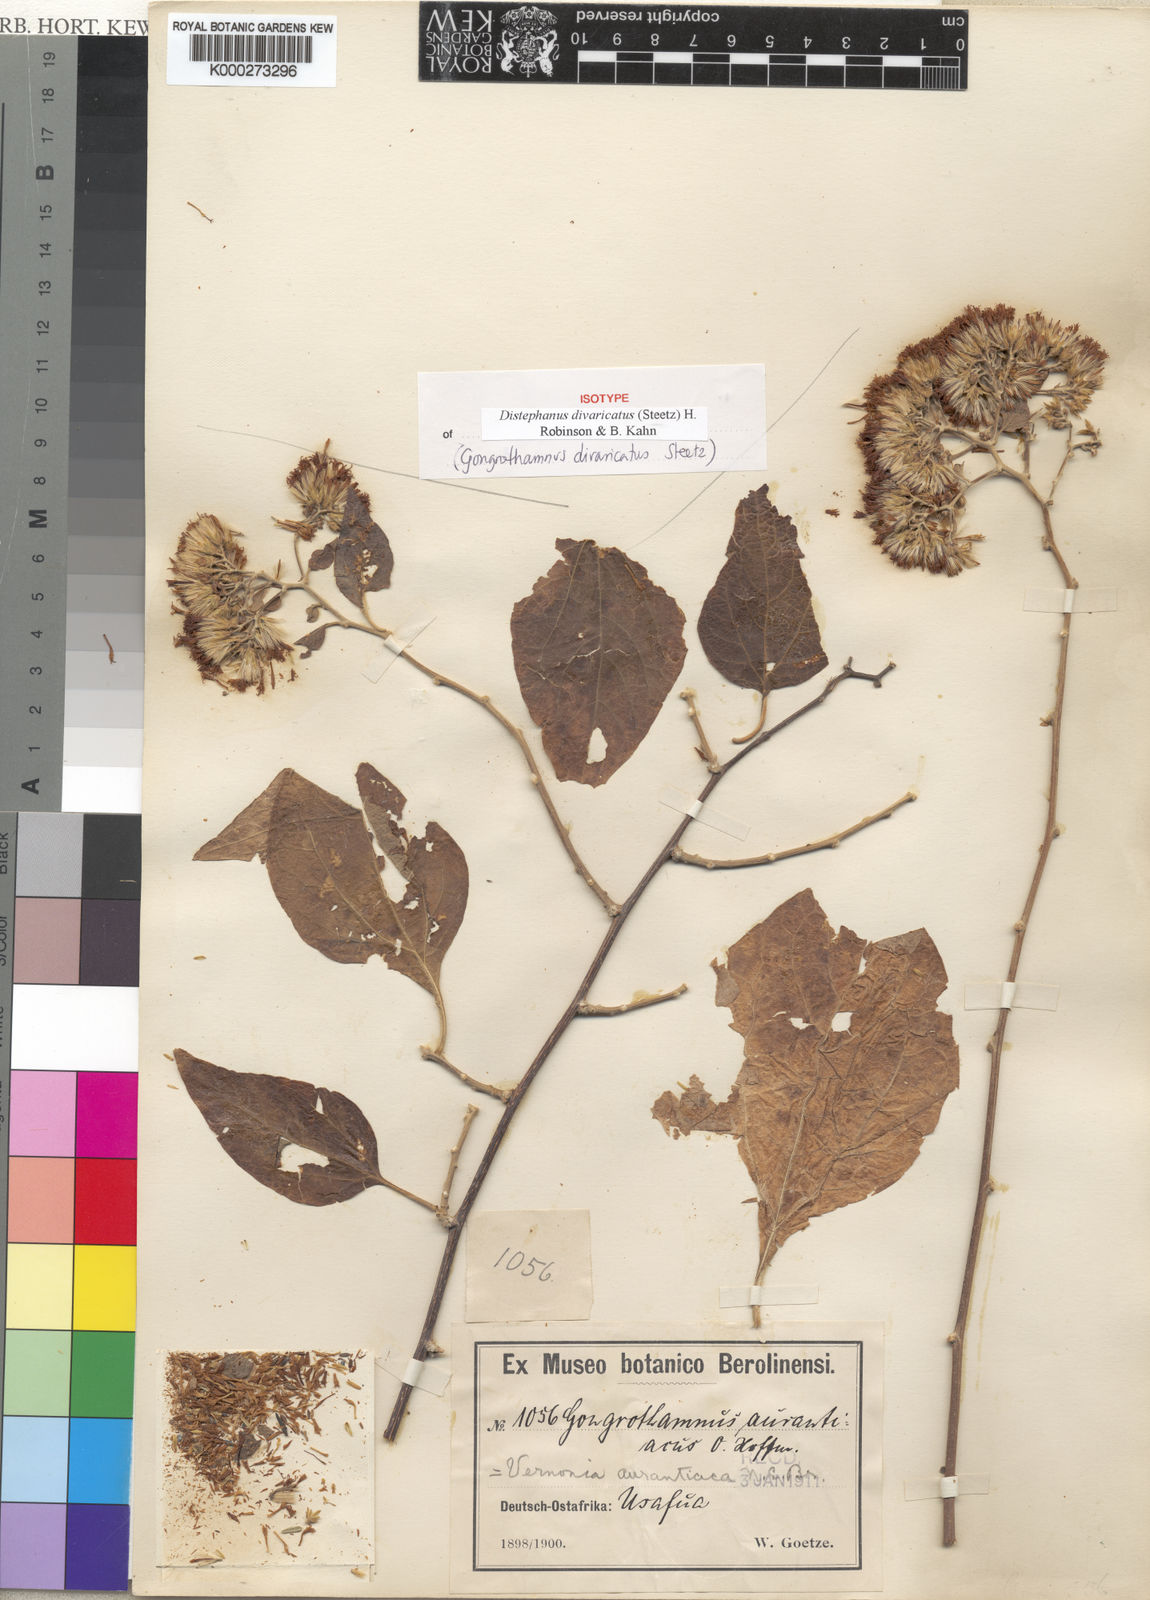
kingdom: Plantae
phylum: Tracheophyta
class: Magnoliopsida
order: Asterales
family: Asteraceae
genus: Distephanus
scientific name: Distephanus divaricatus
